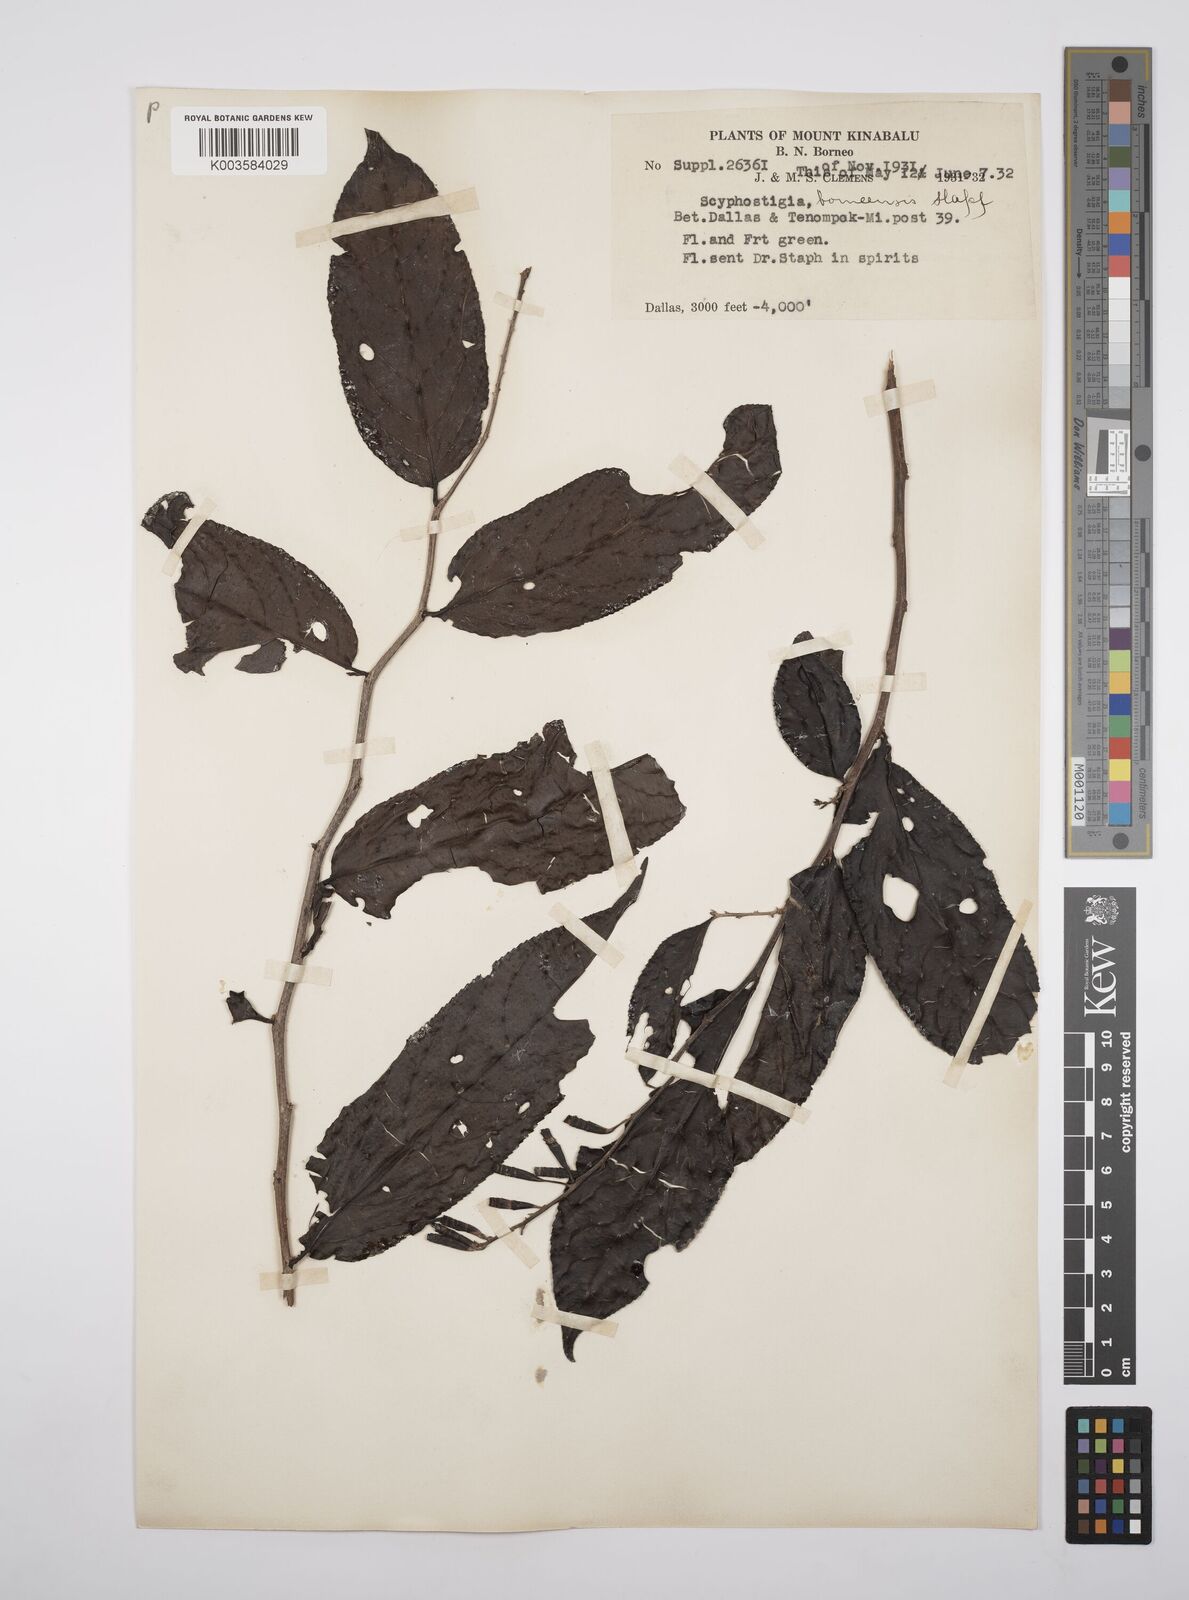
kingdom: Plantae
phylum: Tracheophyta
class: Magnoliopsida
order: Malpighiales
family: Salicaceae
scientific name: Salicaceae
